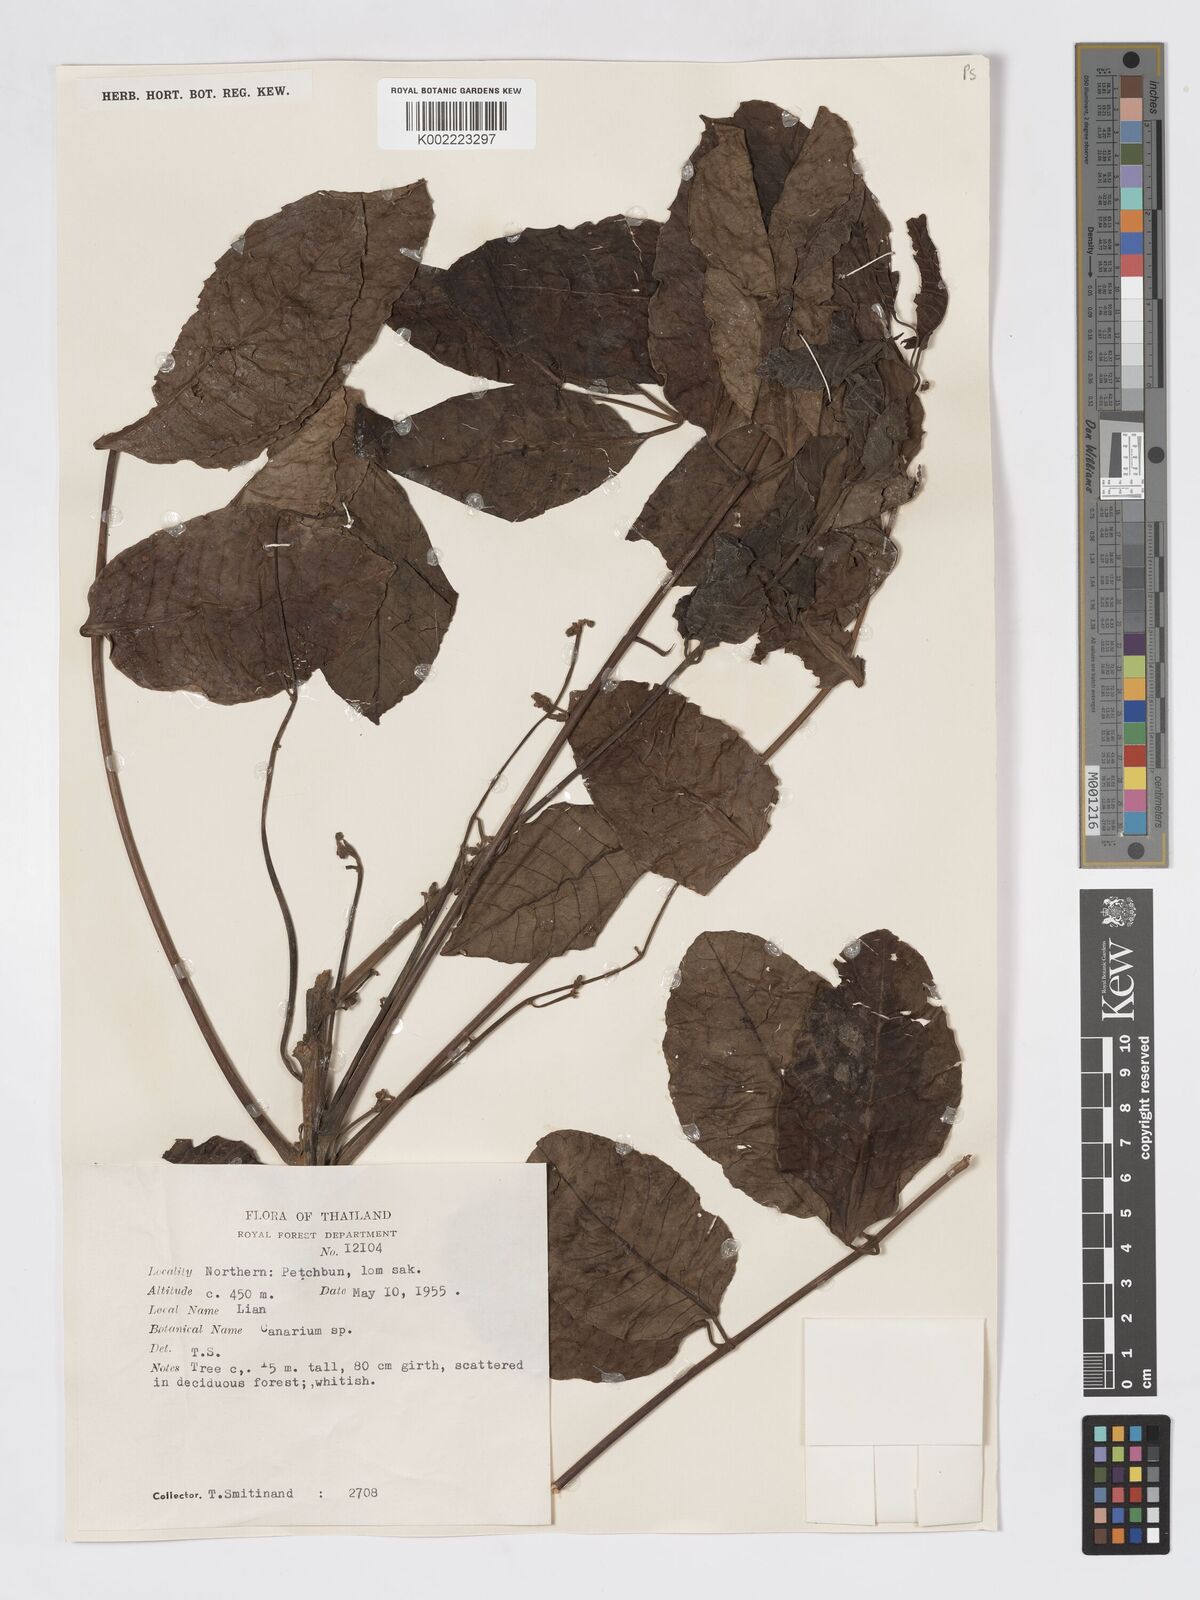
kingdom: Plantae
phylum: Tracheophyta
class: Magnoliopsida
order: Sapindales
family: Burseraceae
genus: Canarium
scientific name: Canarium subulatum
